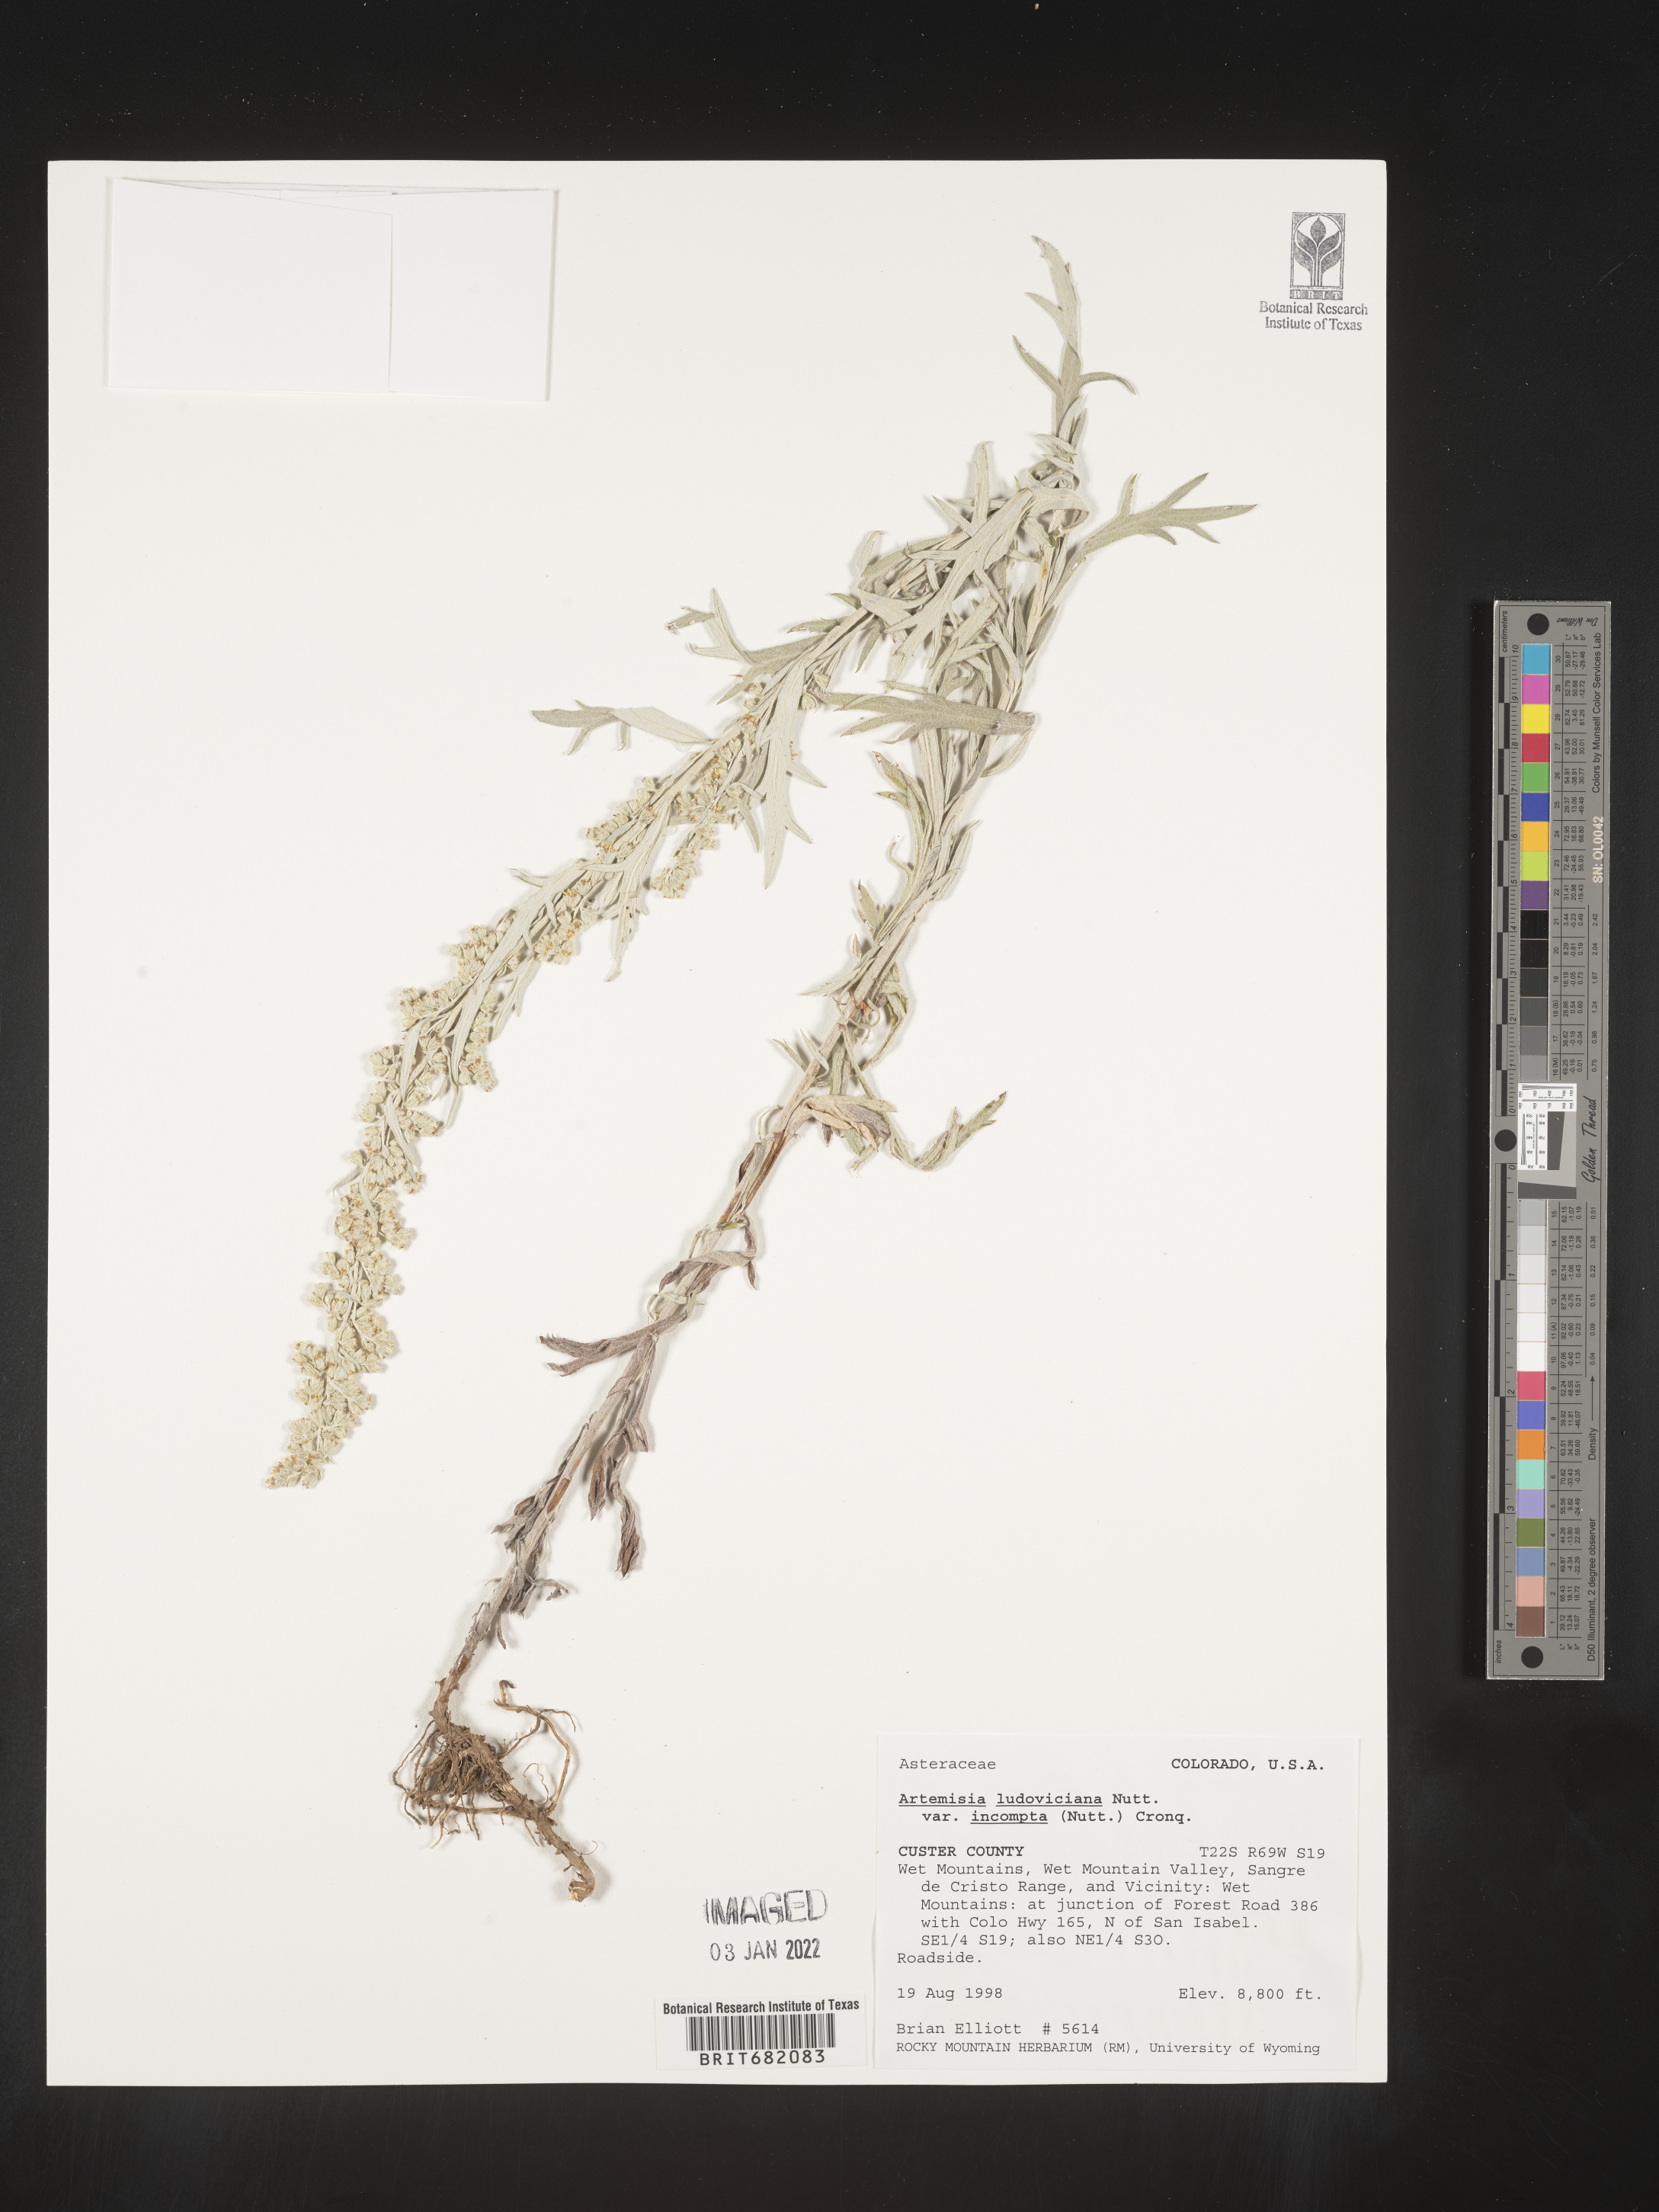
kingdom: Plantae
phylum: Tracheophyta
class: Magnoliopsida
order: Asterales
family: Asteraceae
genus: Artemisia
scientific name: Artemisia ludoviciana
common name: Western mugwort
